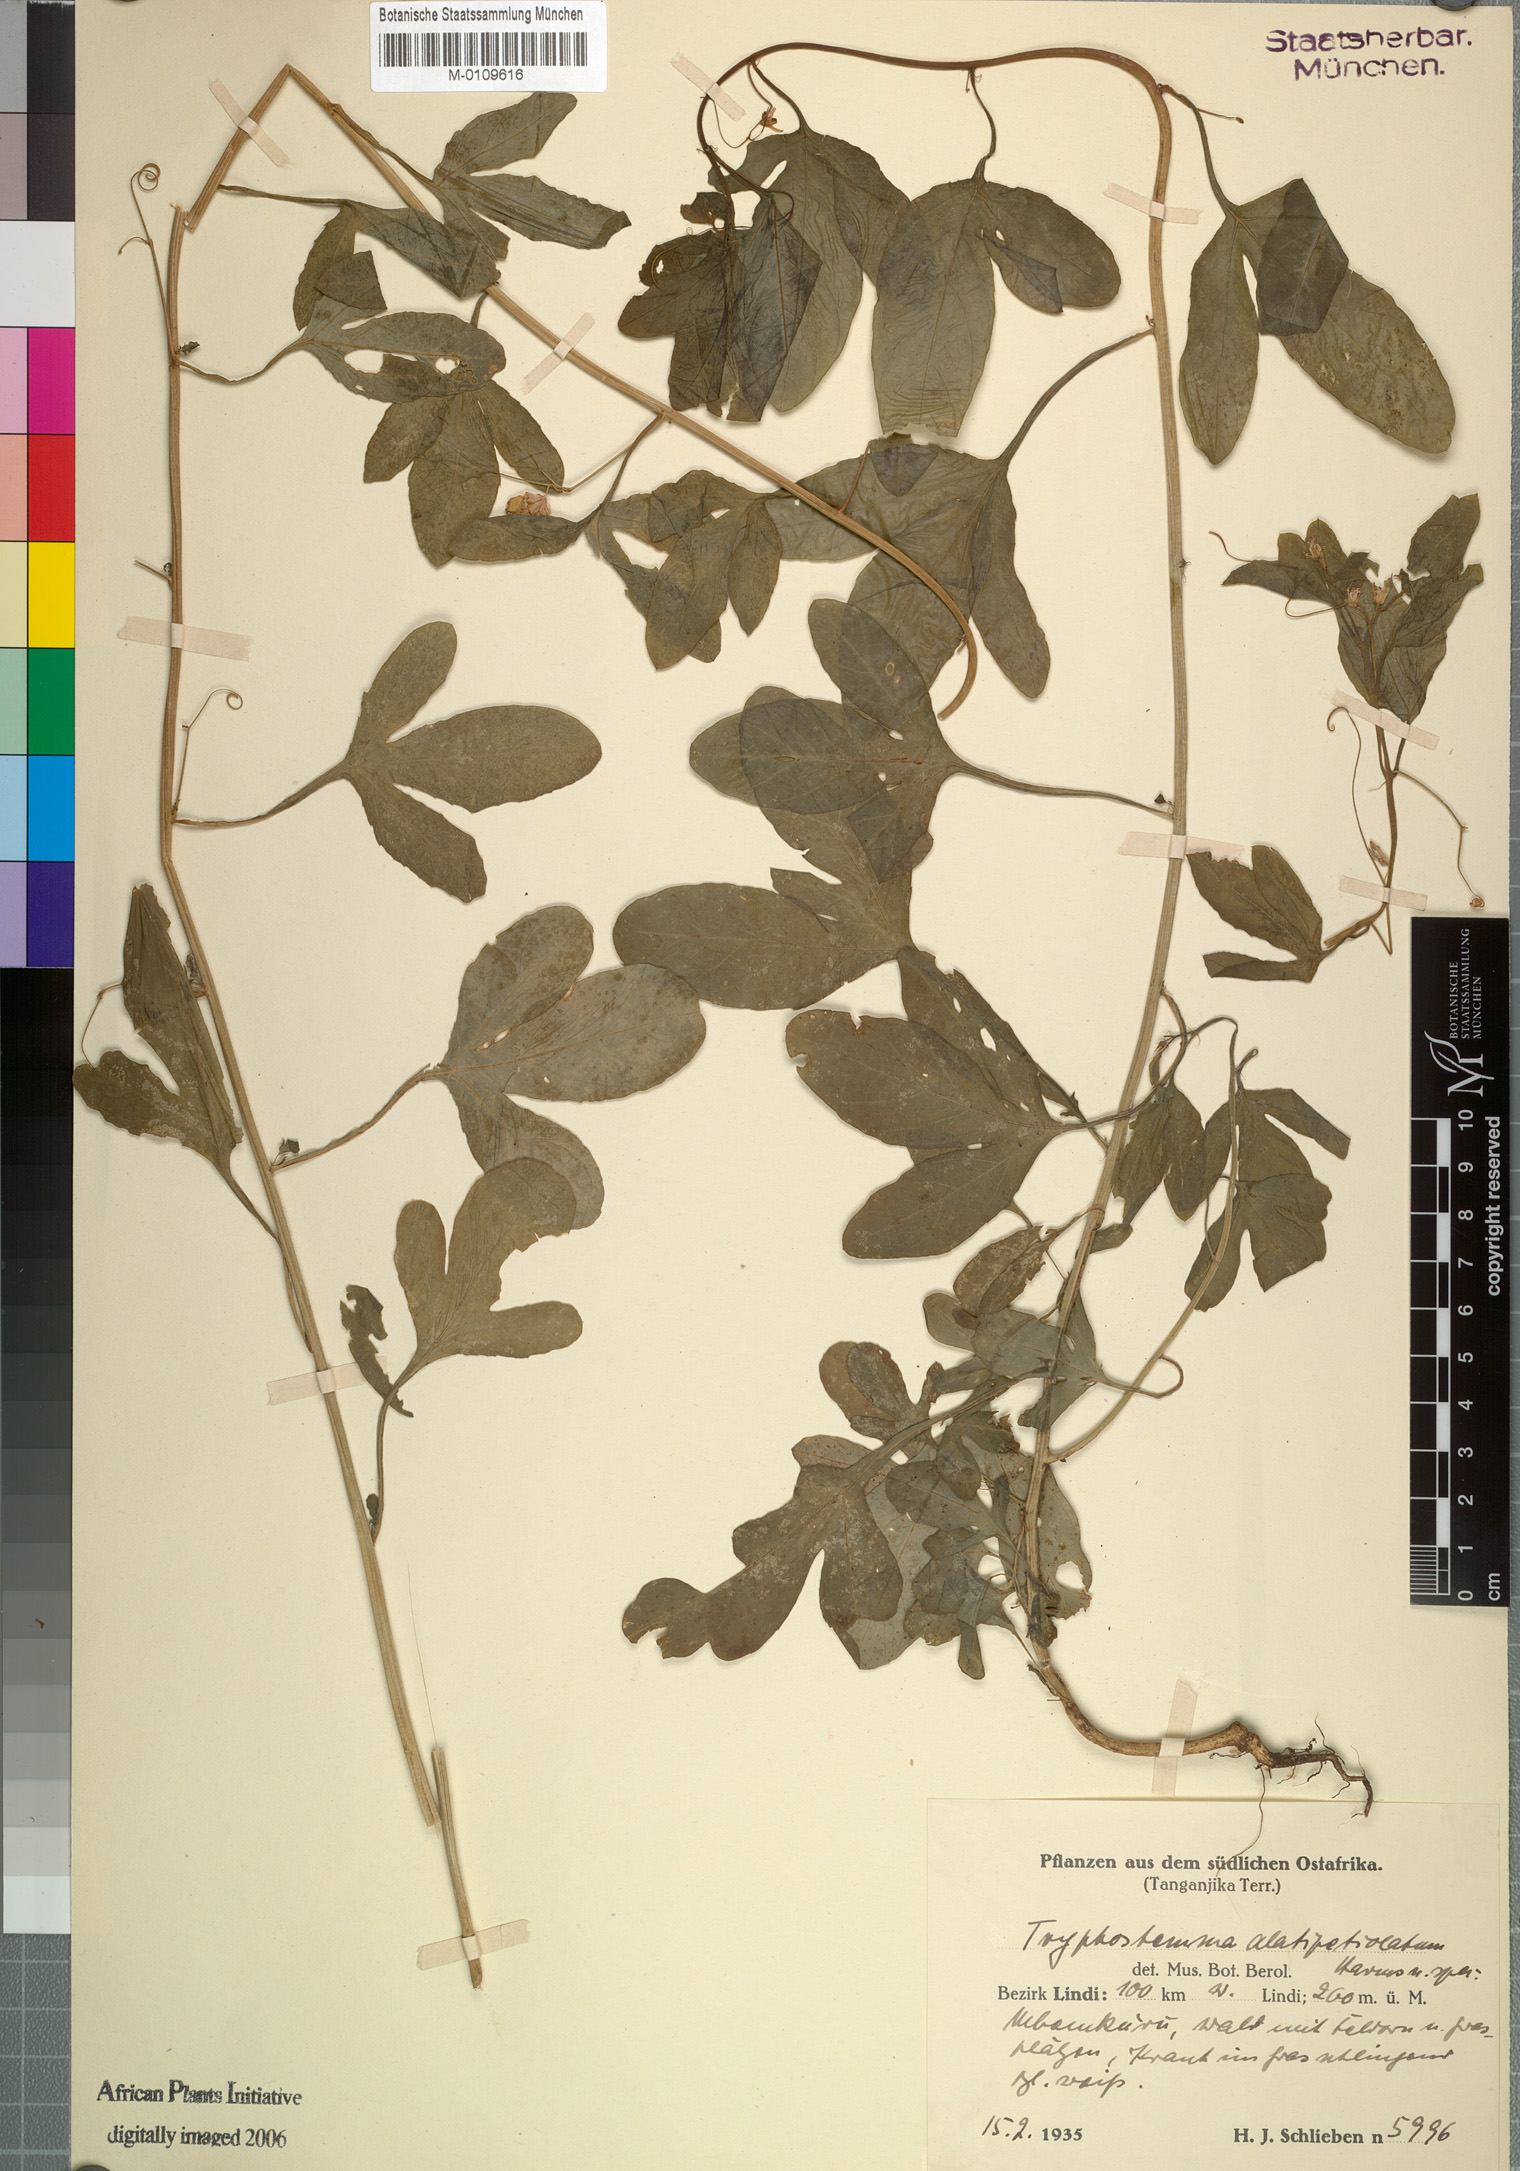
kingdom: Plantae
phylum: Tracheophyta
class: Magnoliopsida
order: Malpighiales
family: Passifloraceae
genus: Basananthe
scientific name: Basananthe lanceolata
